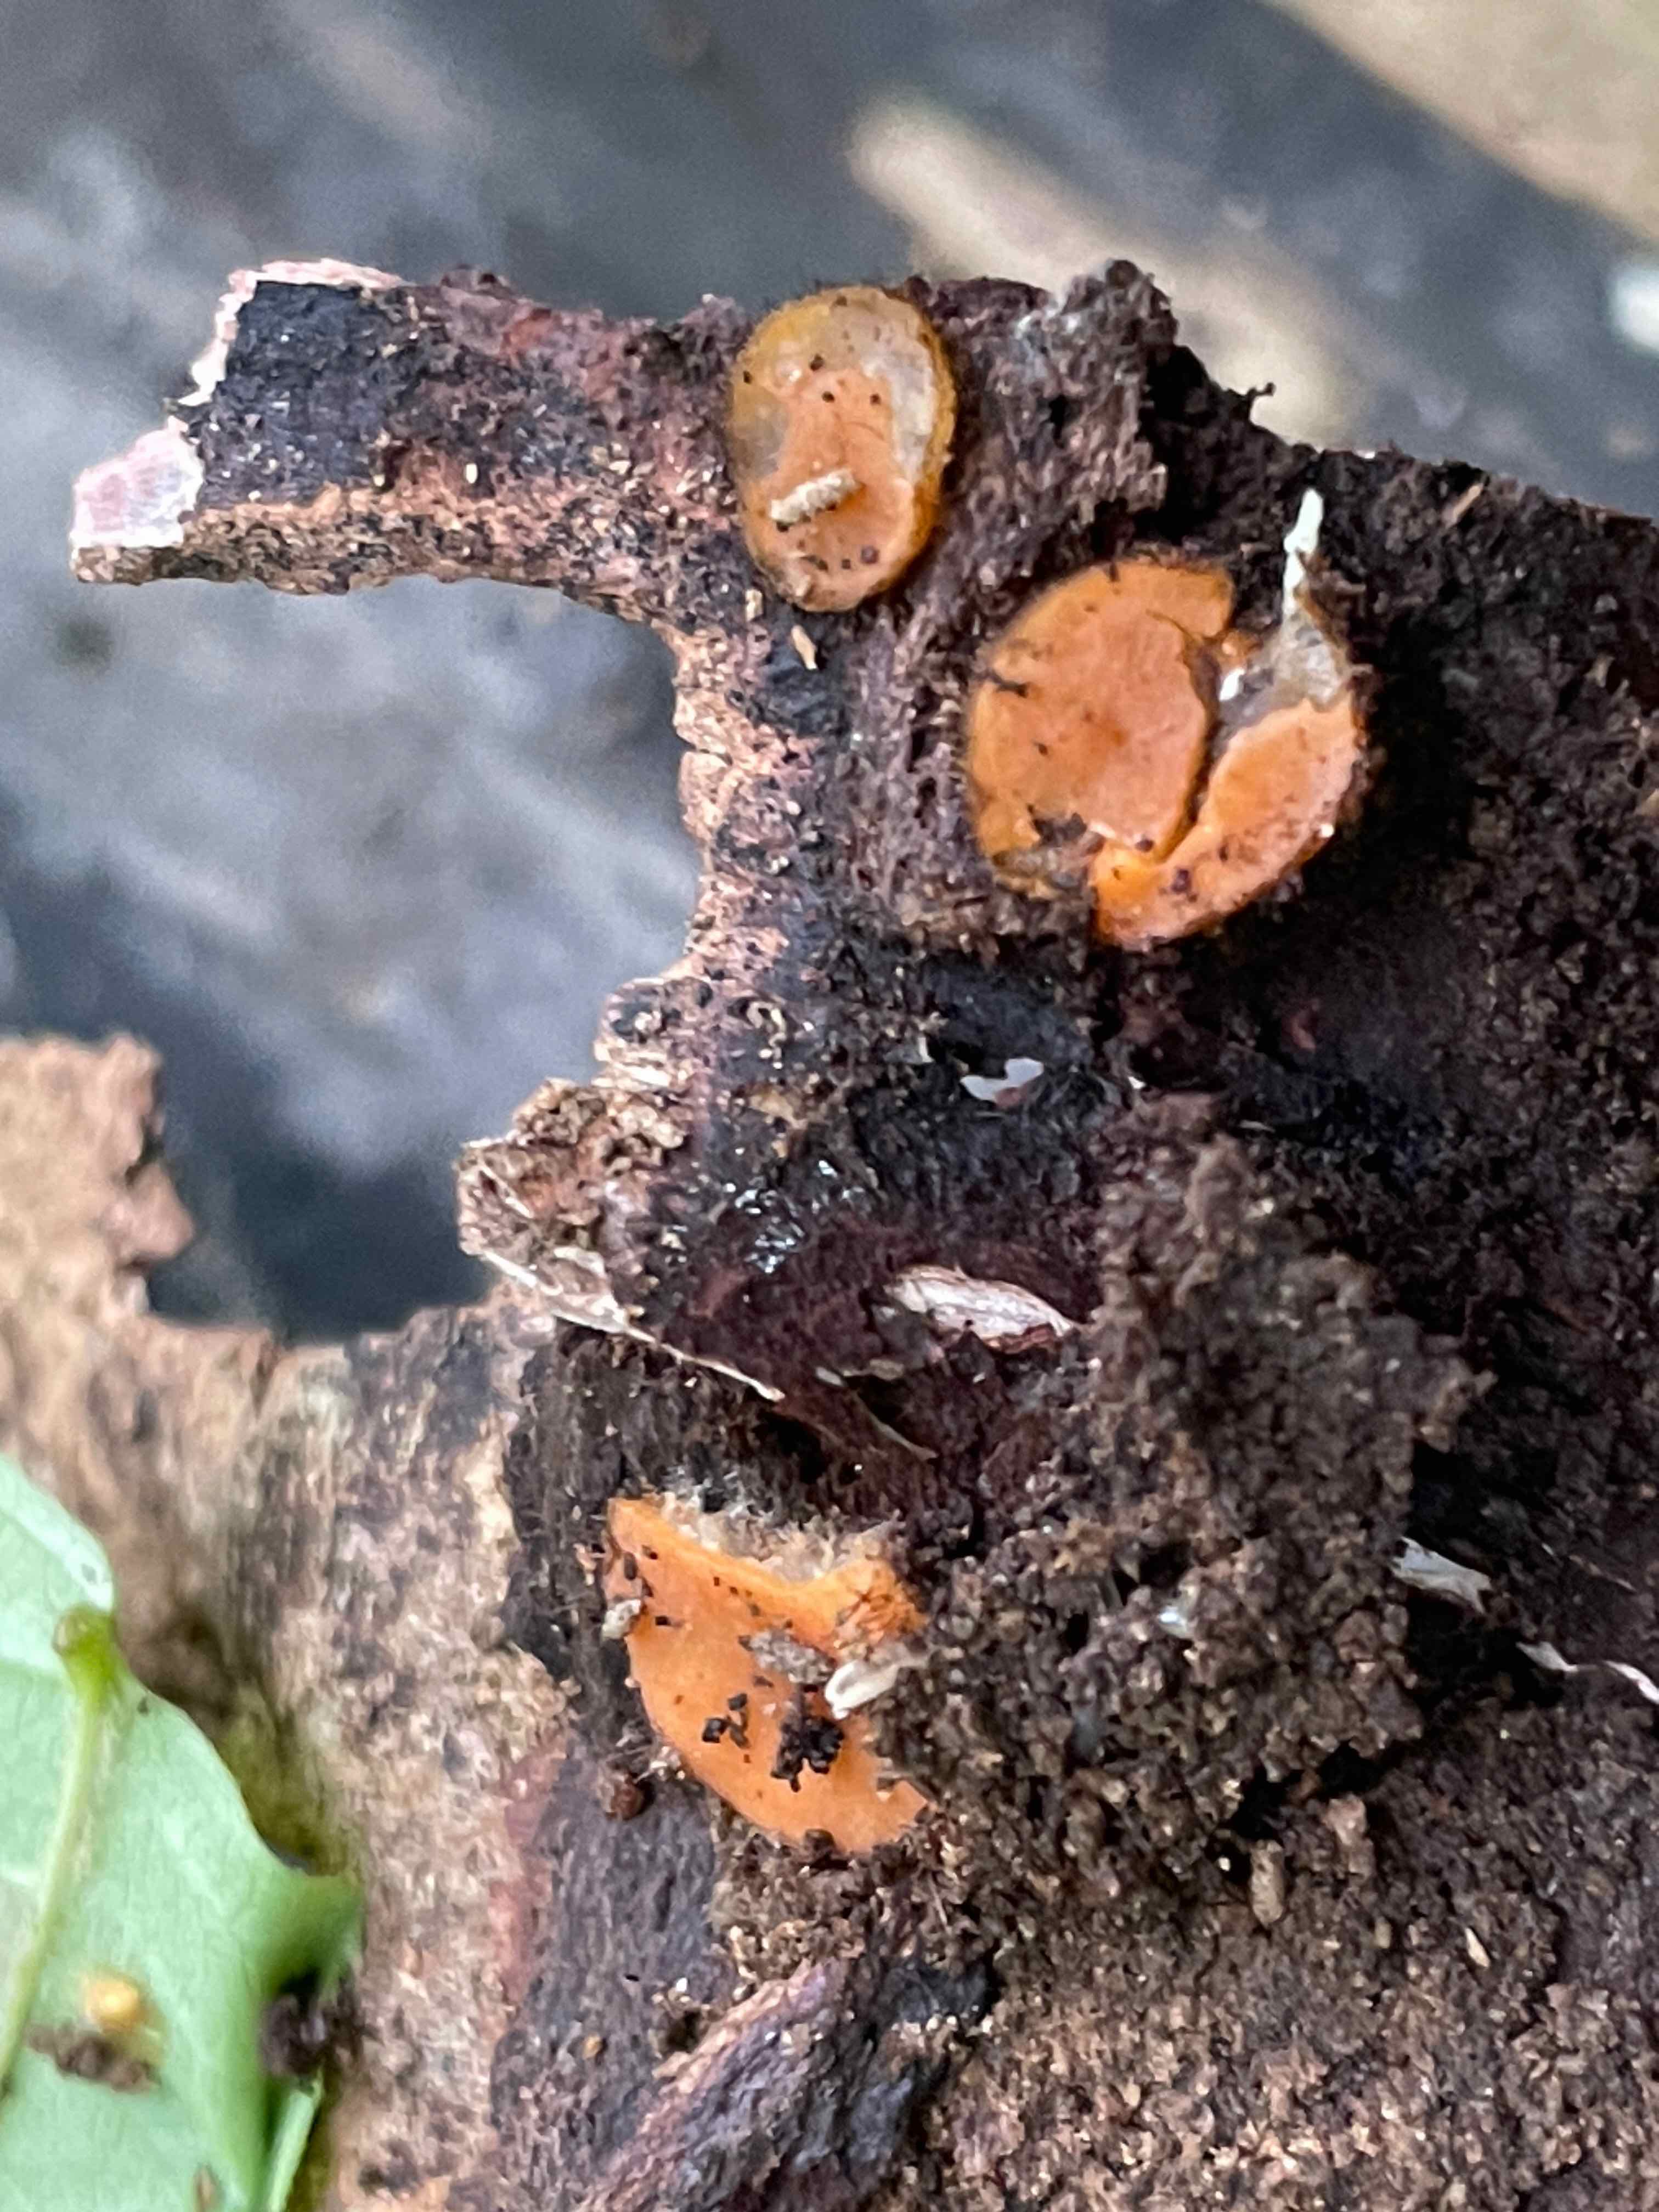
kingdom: Fungi
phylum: Ascomycota
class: Pezizomycetes
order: Pezizales
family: Pyronemataceae
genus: Scutellinia
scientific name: Scutellinia scutellata
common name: frynset skjoldbæger
